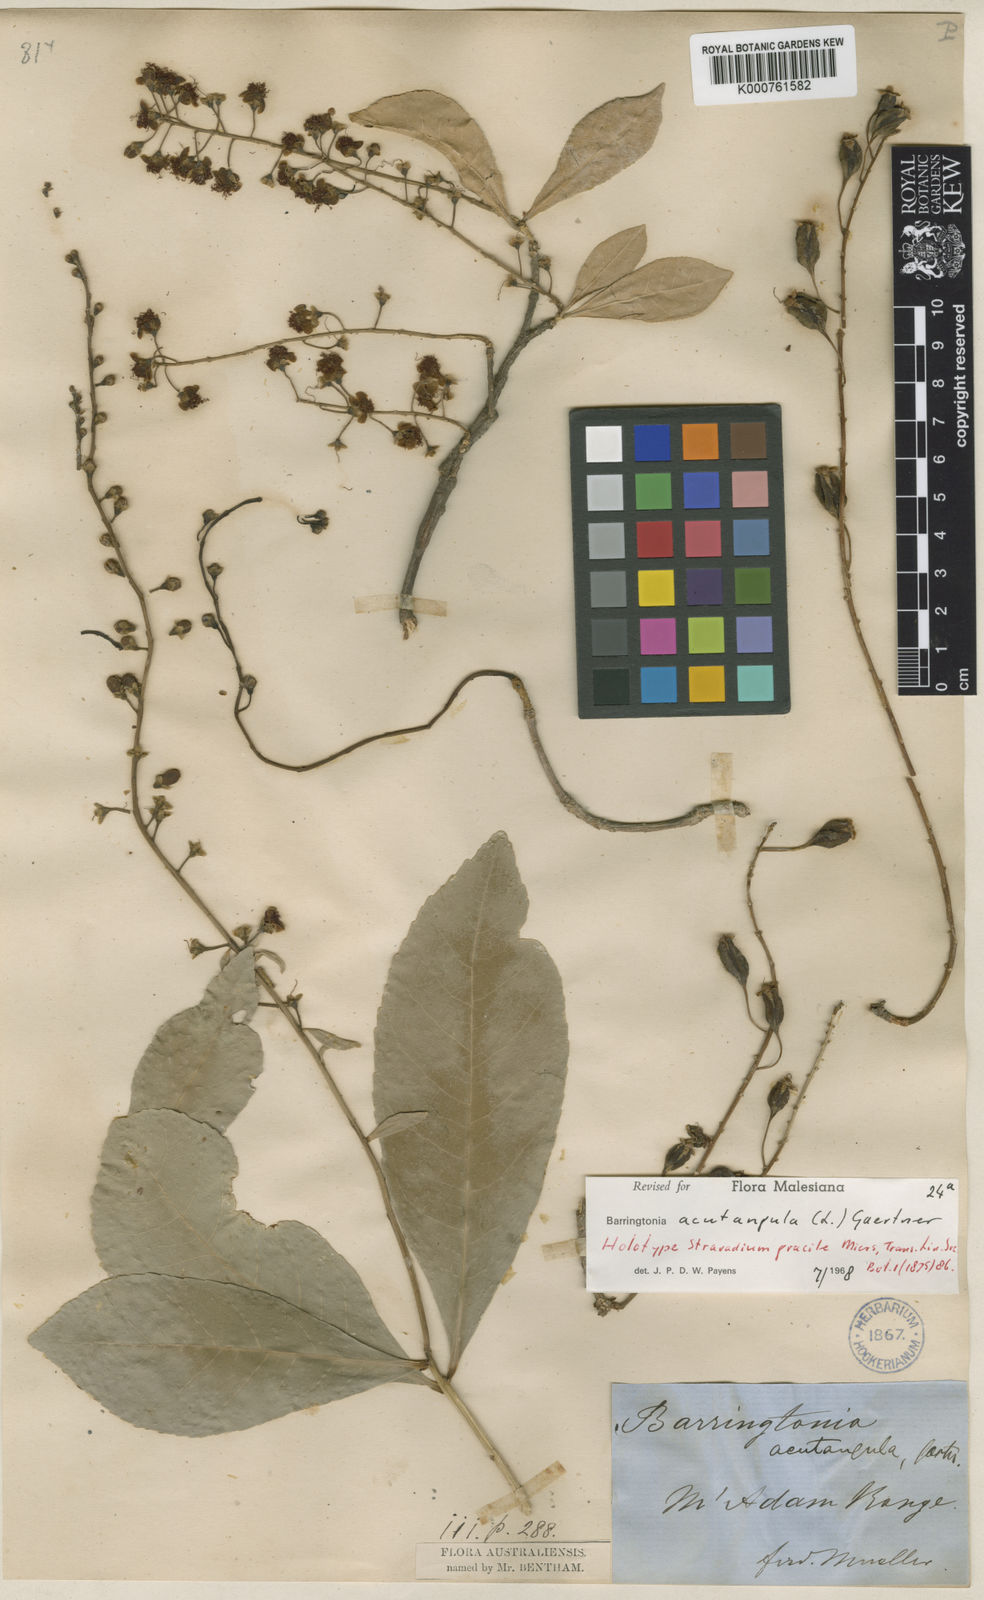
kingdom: Plantae
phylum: Tracheophyta
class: Magnoliopsida
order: Ericales
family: Lecythidaceae
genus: Barringtonia
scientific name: Barringtonia acutangula
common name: Freshwater mangrove
